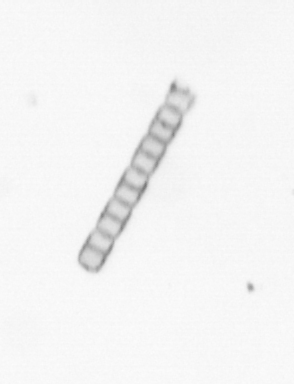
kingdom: Chromista
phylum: Ochrophyta
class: Bacillariophyceae
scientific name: Bacillariophyceae
